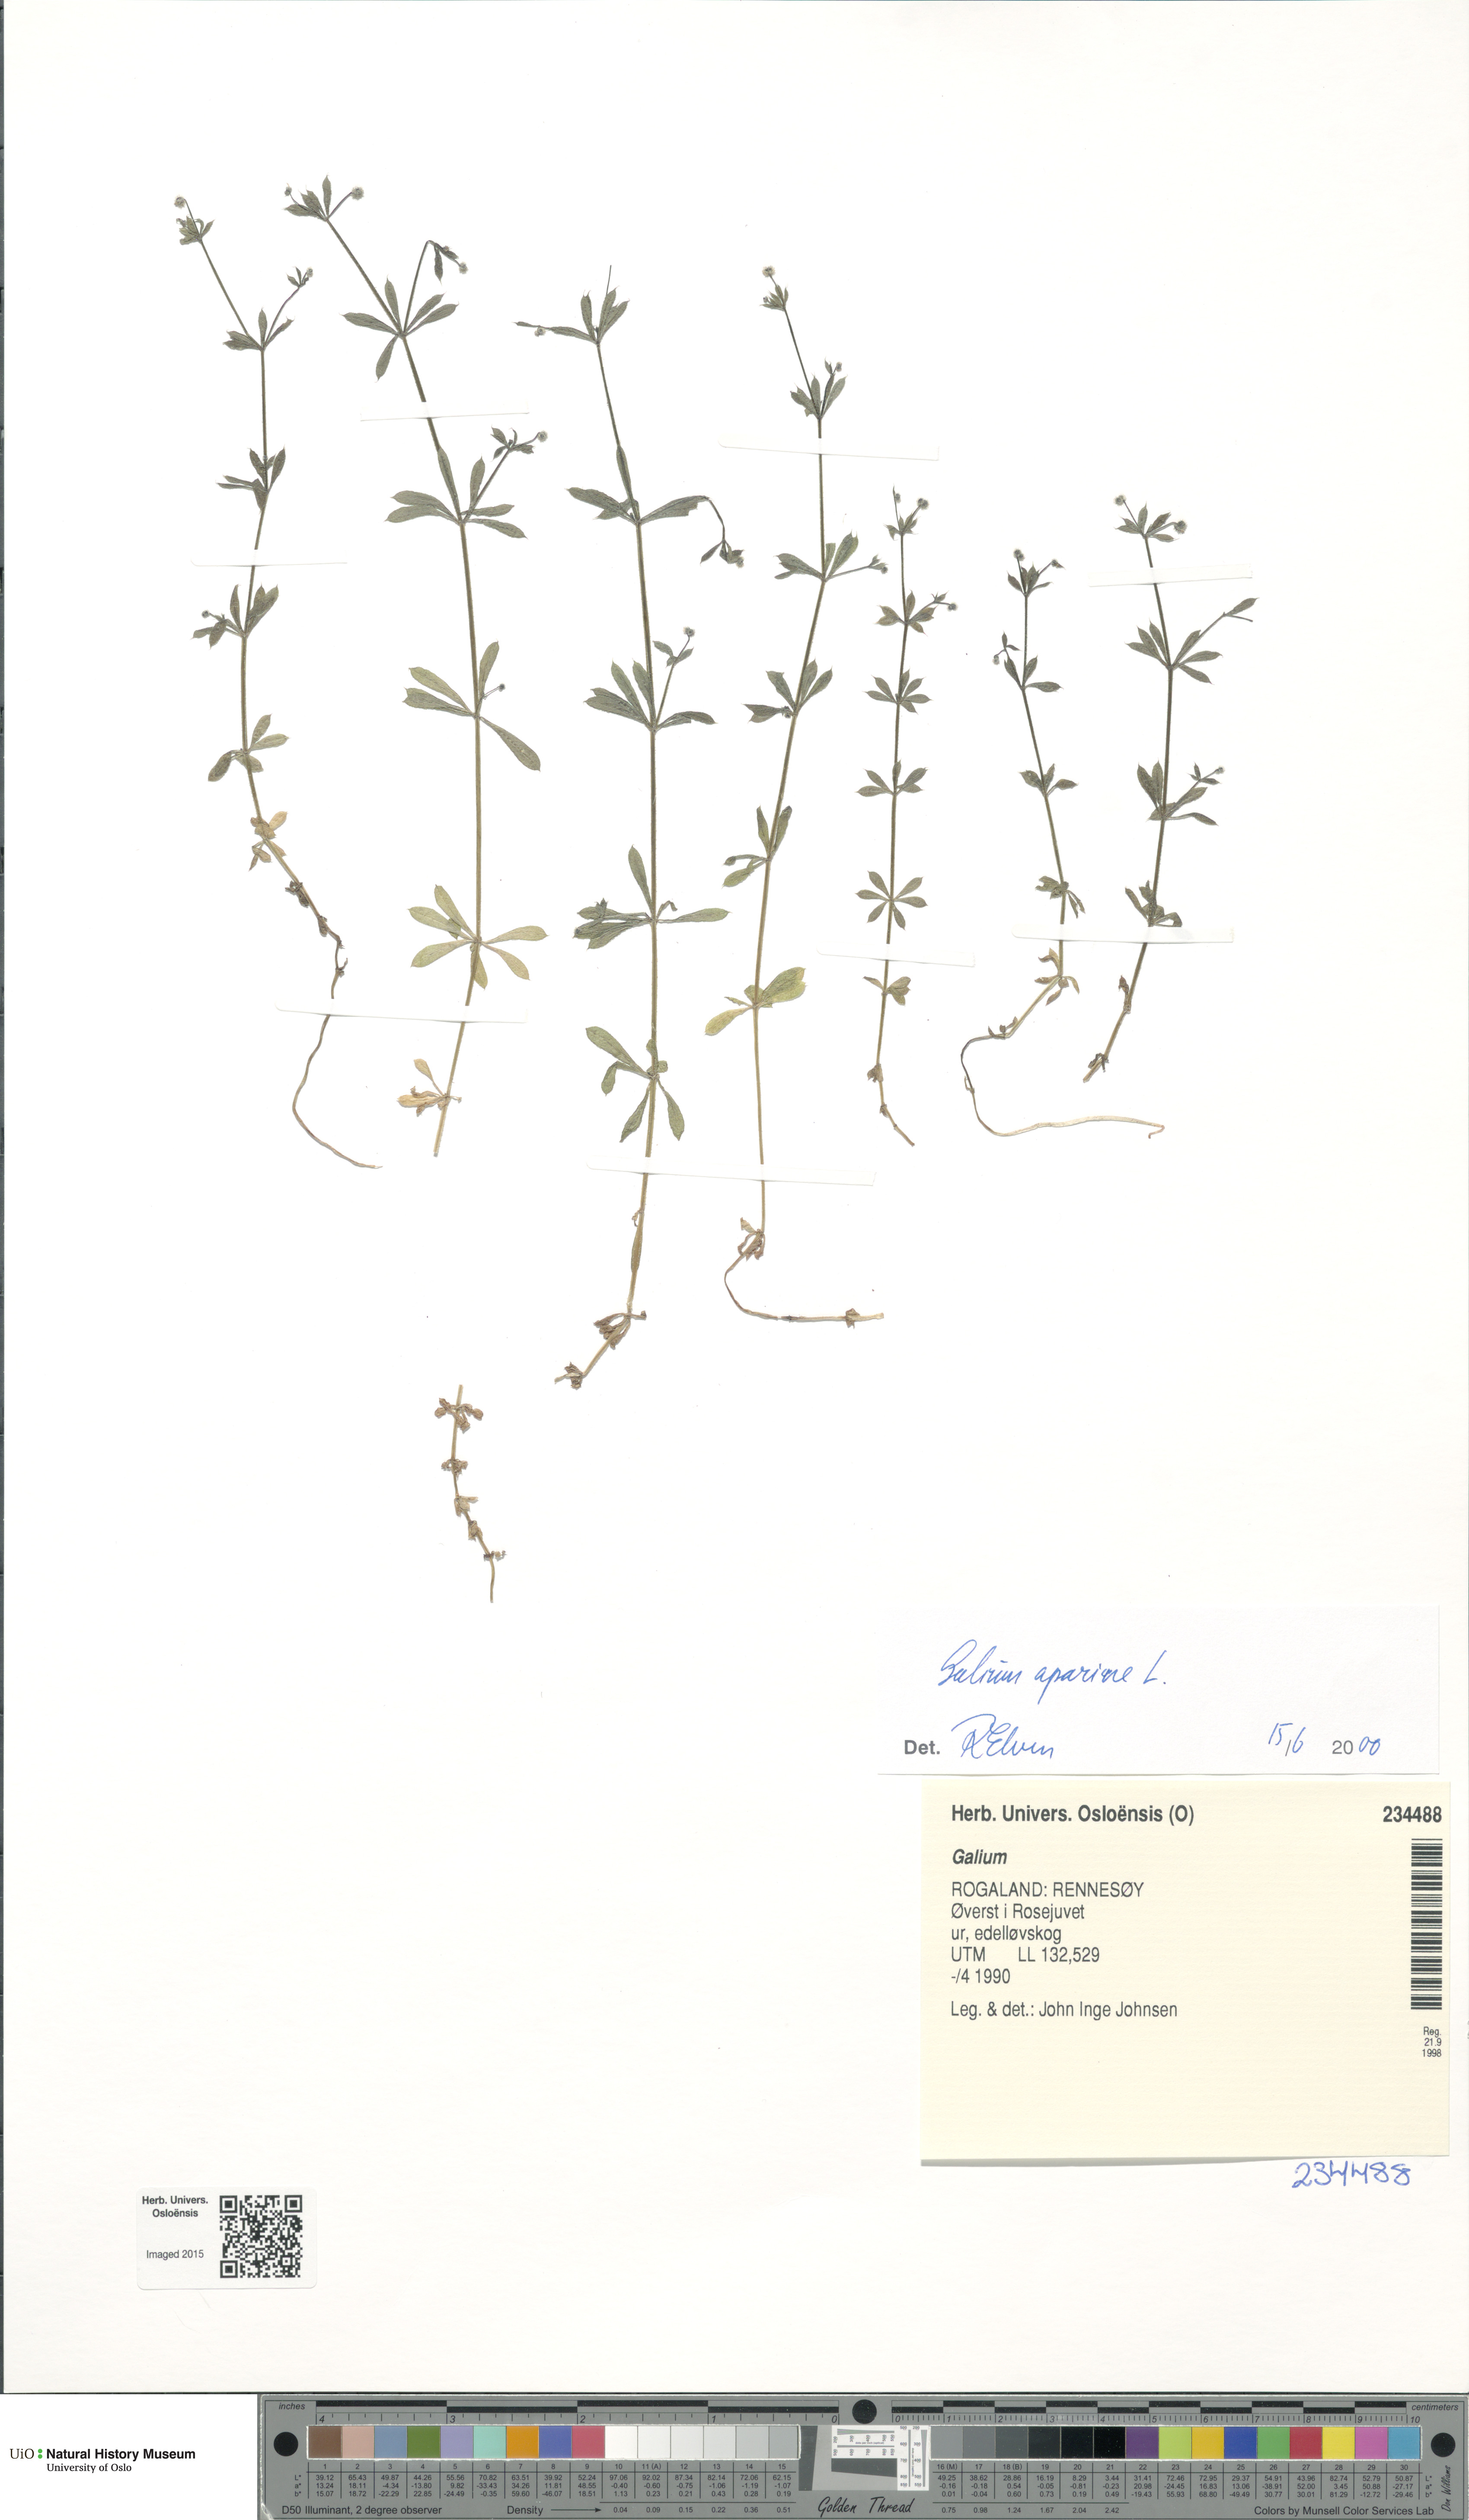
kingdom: Plantae
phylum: Tracheophyta
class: Magnoliopsida
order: Gentianales
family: Rubiaceae
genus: Galium
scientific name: Galium
